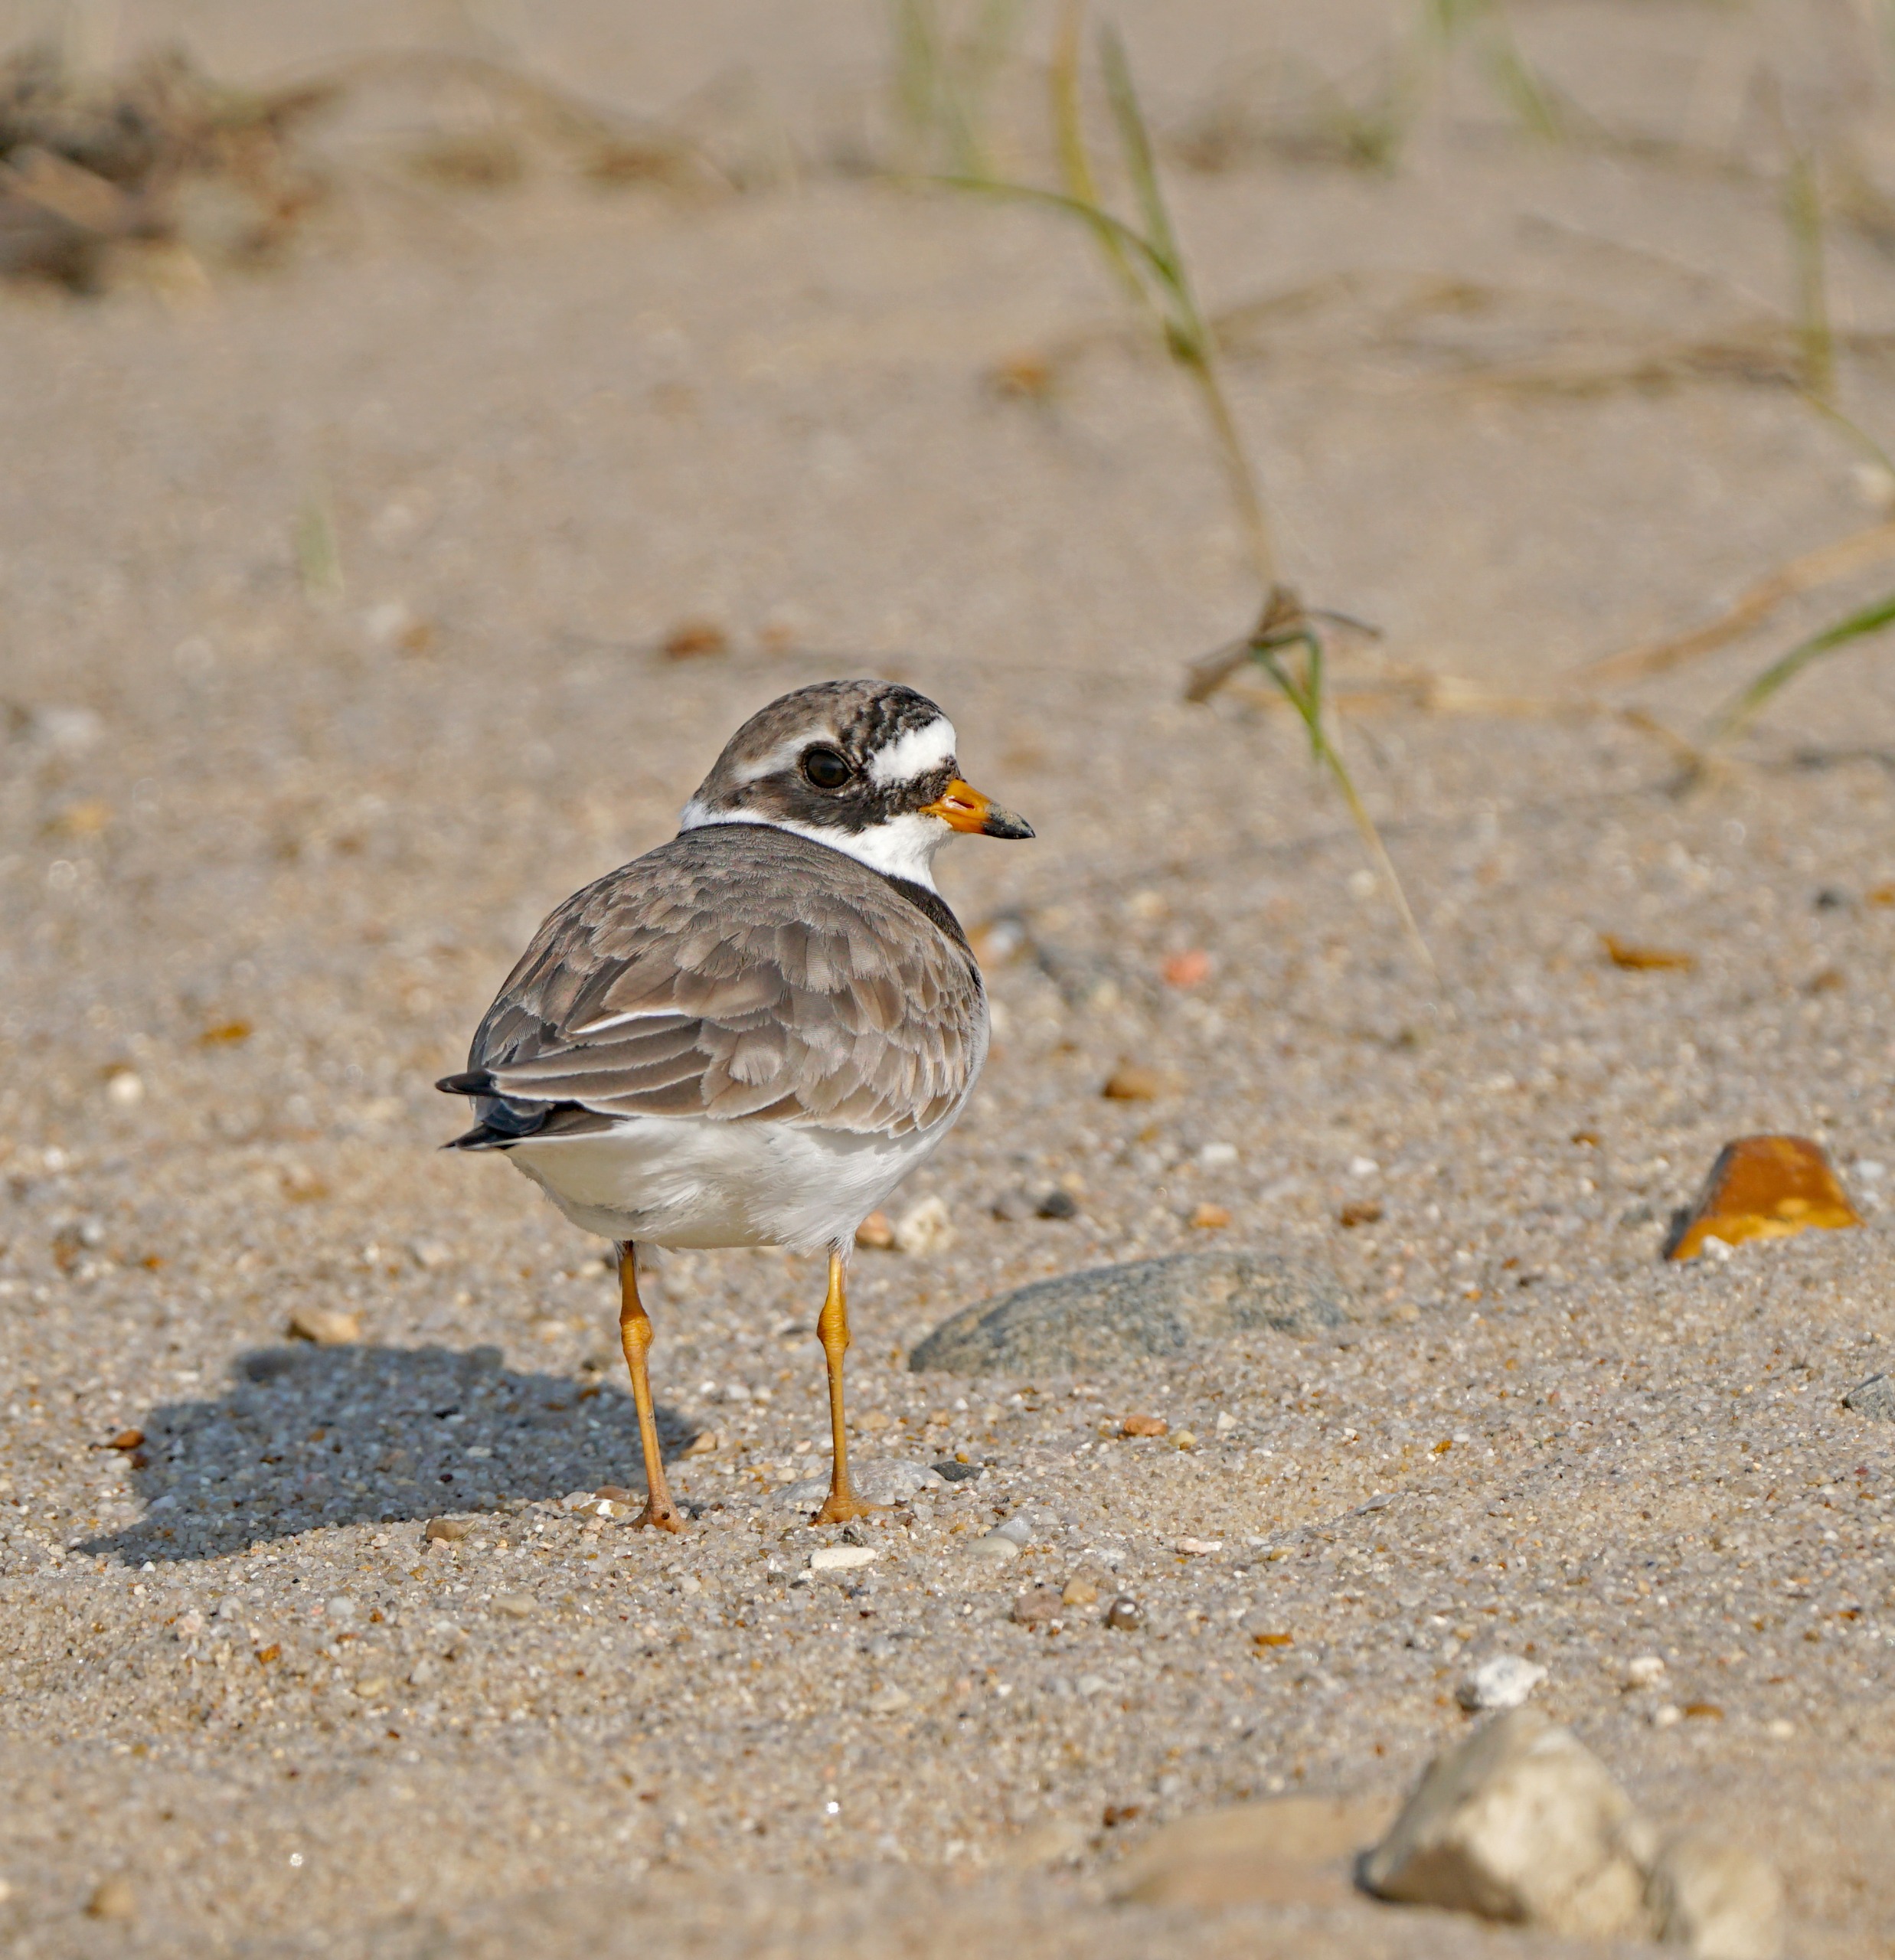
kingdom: Animalia
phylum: Chordata
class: Aves
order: Charadriiformes
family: Charadriidae
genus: Charadrius
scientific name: Charadrius hiaticula
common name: Stor præstekrave
